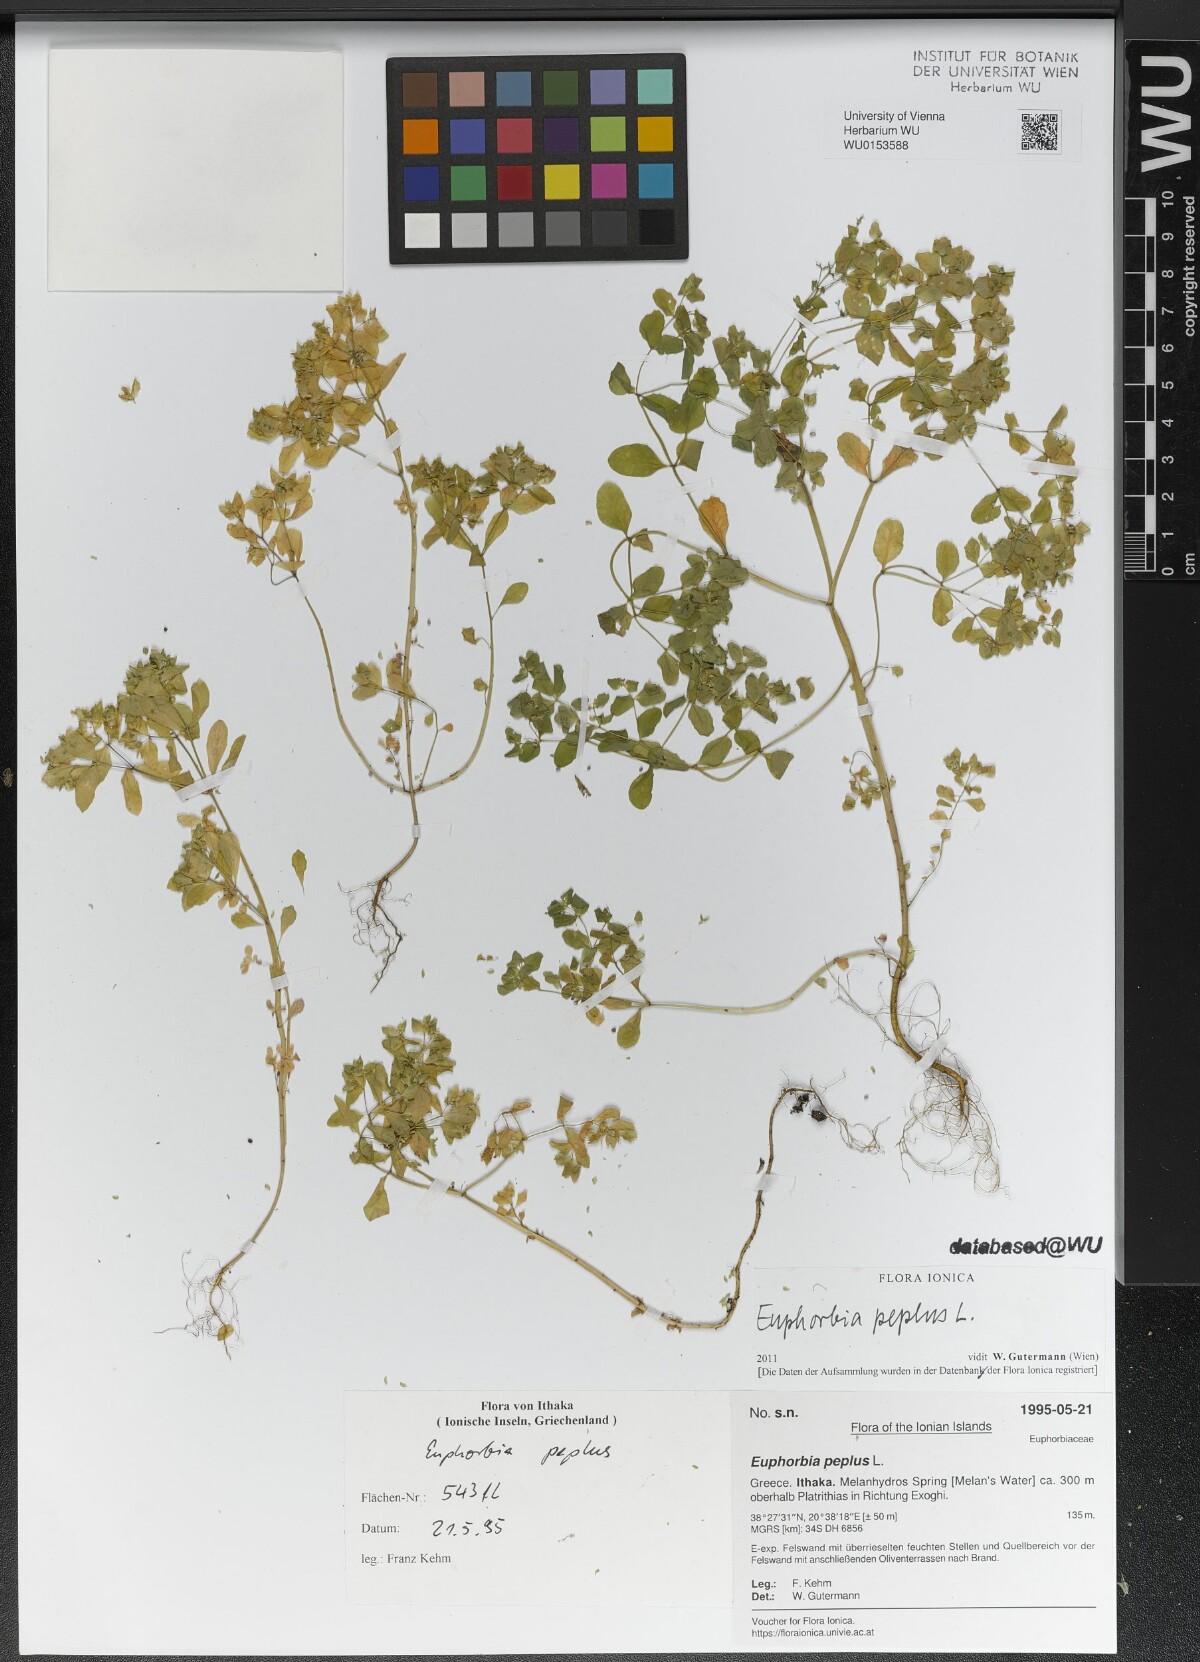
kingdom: Plantae
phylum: Tracheophyta
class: Magnoliopsida
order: Malpighiales
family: Euphorbiaceae
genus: Euphorbia
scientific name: Euphorbia peplus
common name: Petty spurge
